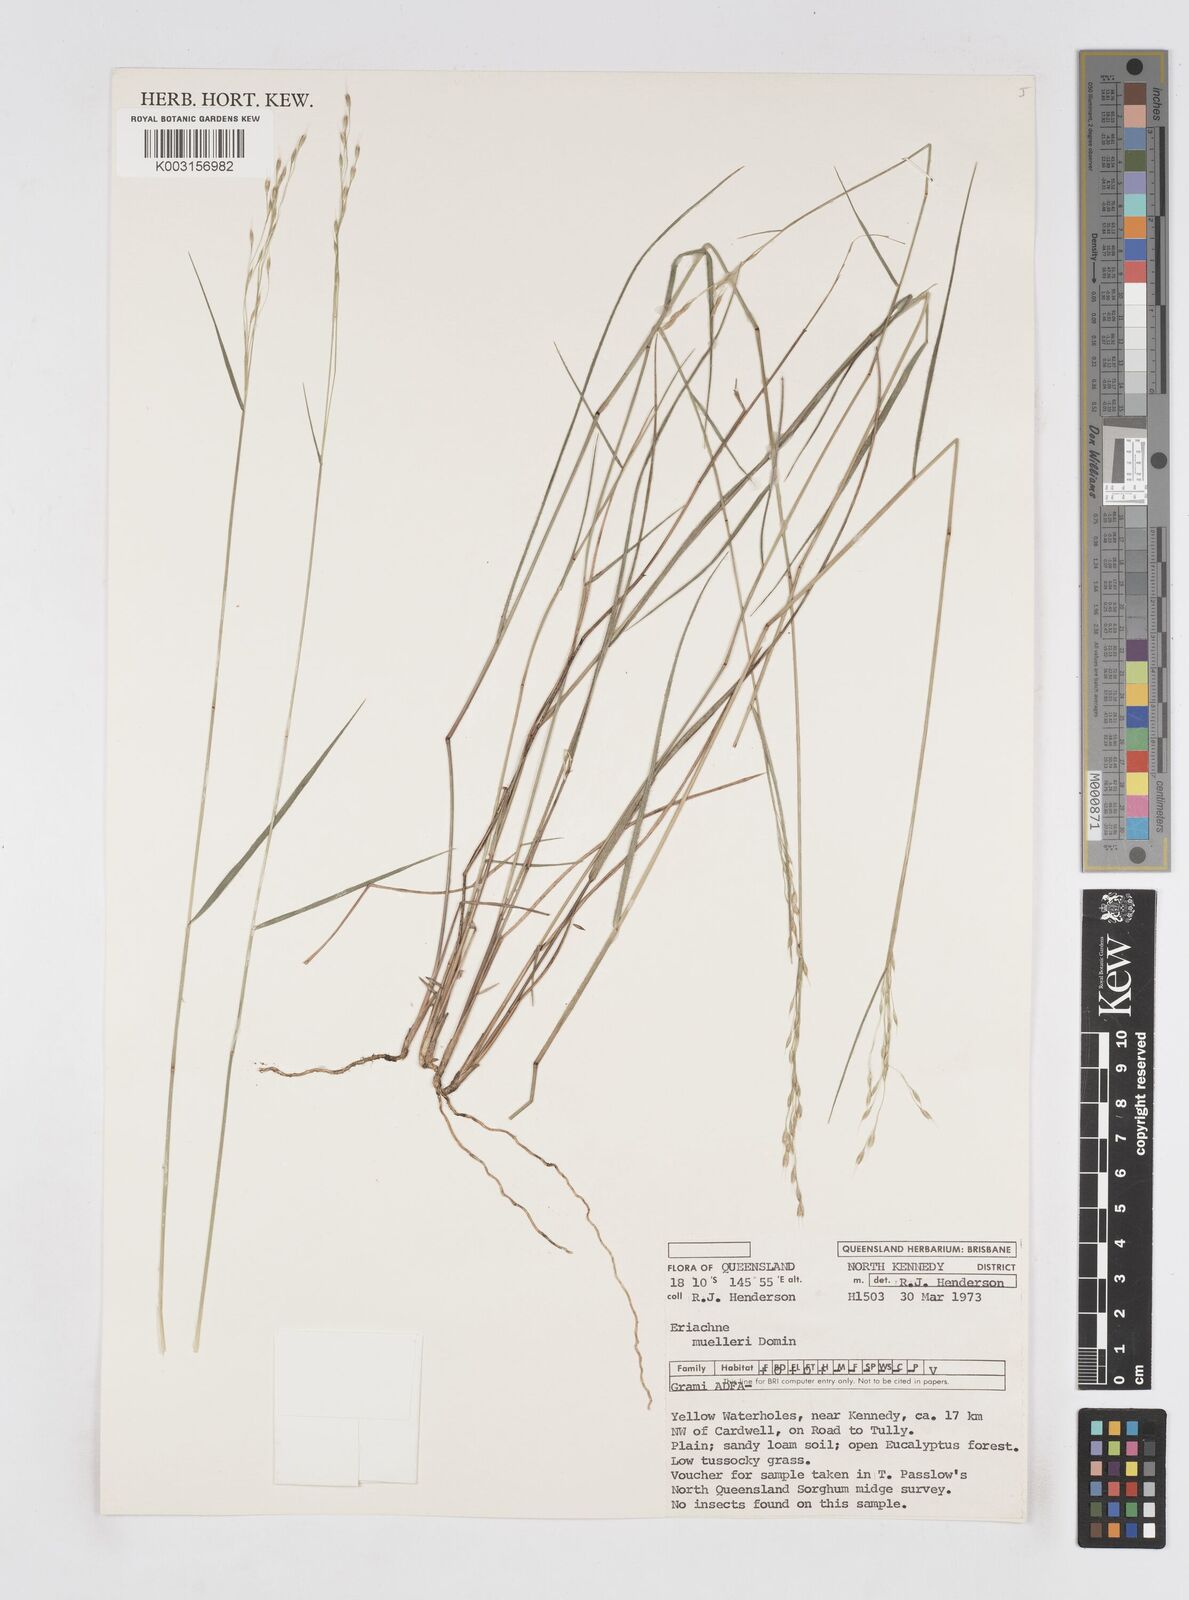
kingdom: Plantae
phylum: Tracheophyta
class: Liliopsida
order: Poales
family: Poaceae
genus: Eriachne
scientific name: Eriachne pallescens
